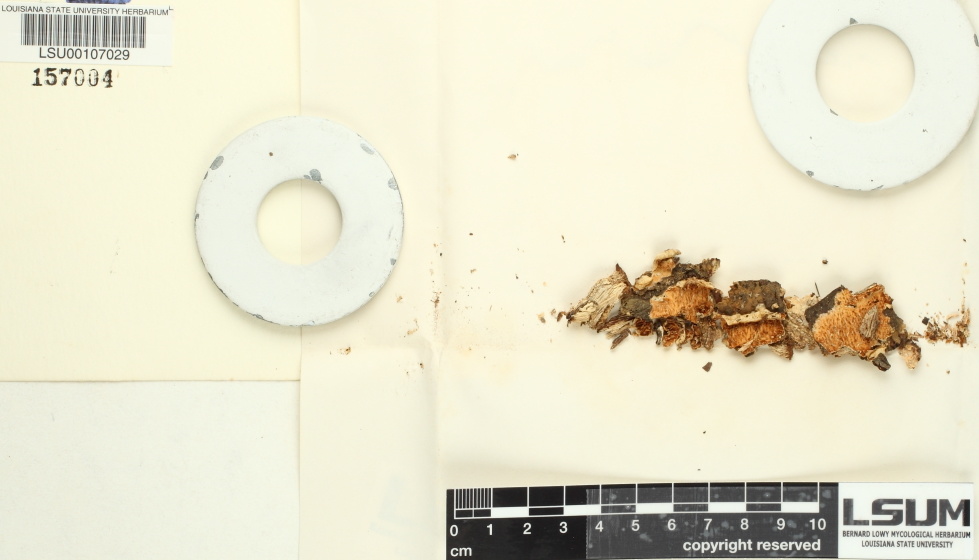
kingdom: Fungi
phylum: Basidiomycota
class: Agaricomycetes
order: Cantharellales
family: Hydnaceae
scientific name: Hydnaceae
